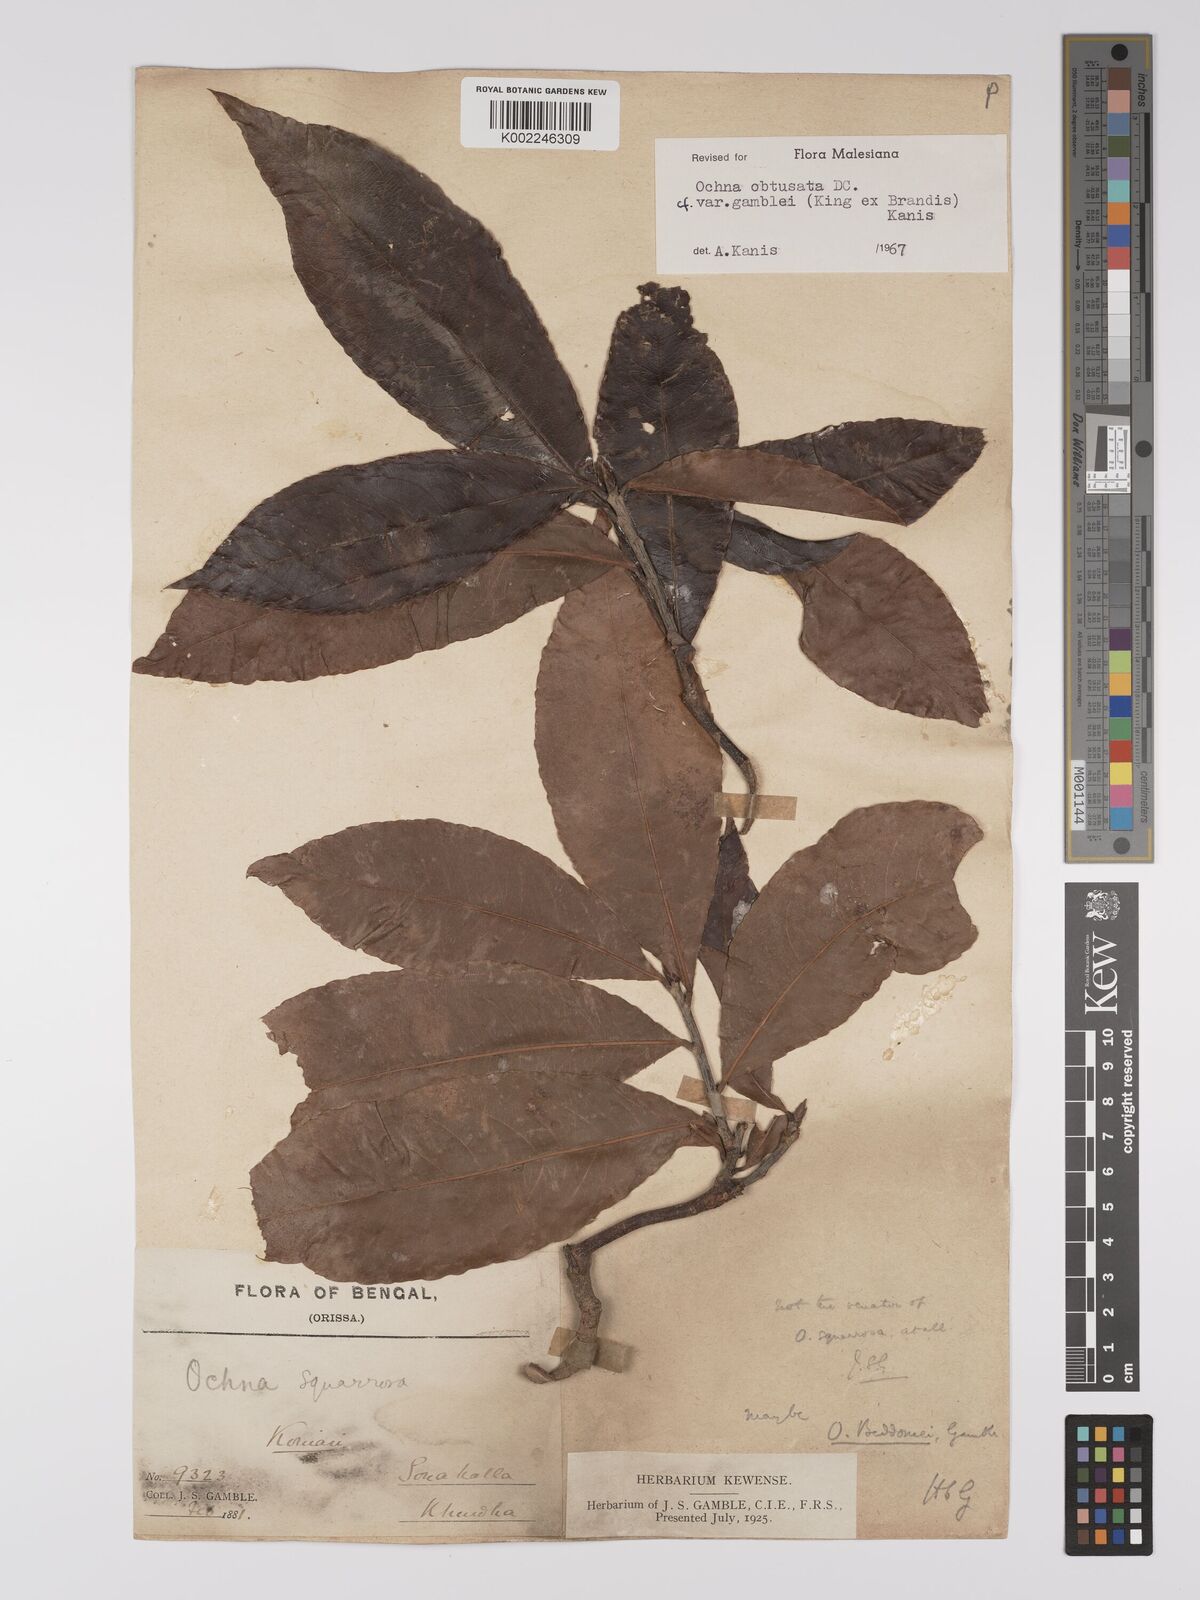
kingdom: Plantae
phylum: Tracheophyta
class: Magnoliopsida
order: Malpighiales
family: Ochnaceae
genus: Ochna
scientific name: Ochna gamblei
